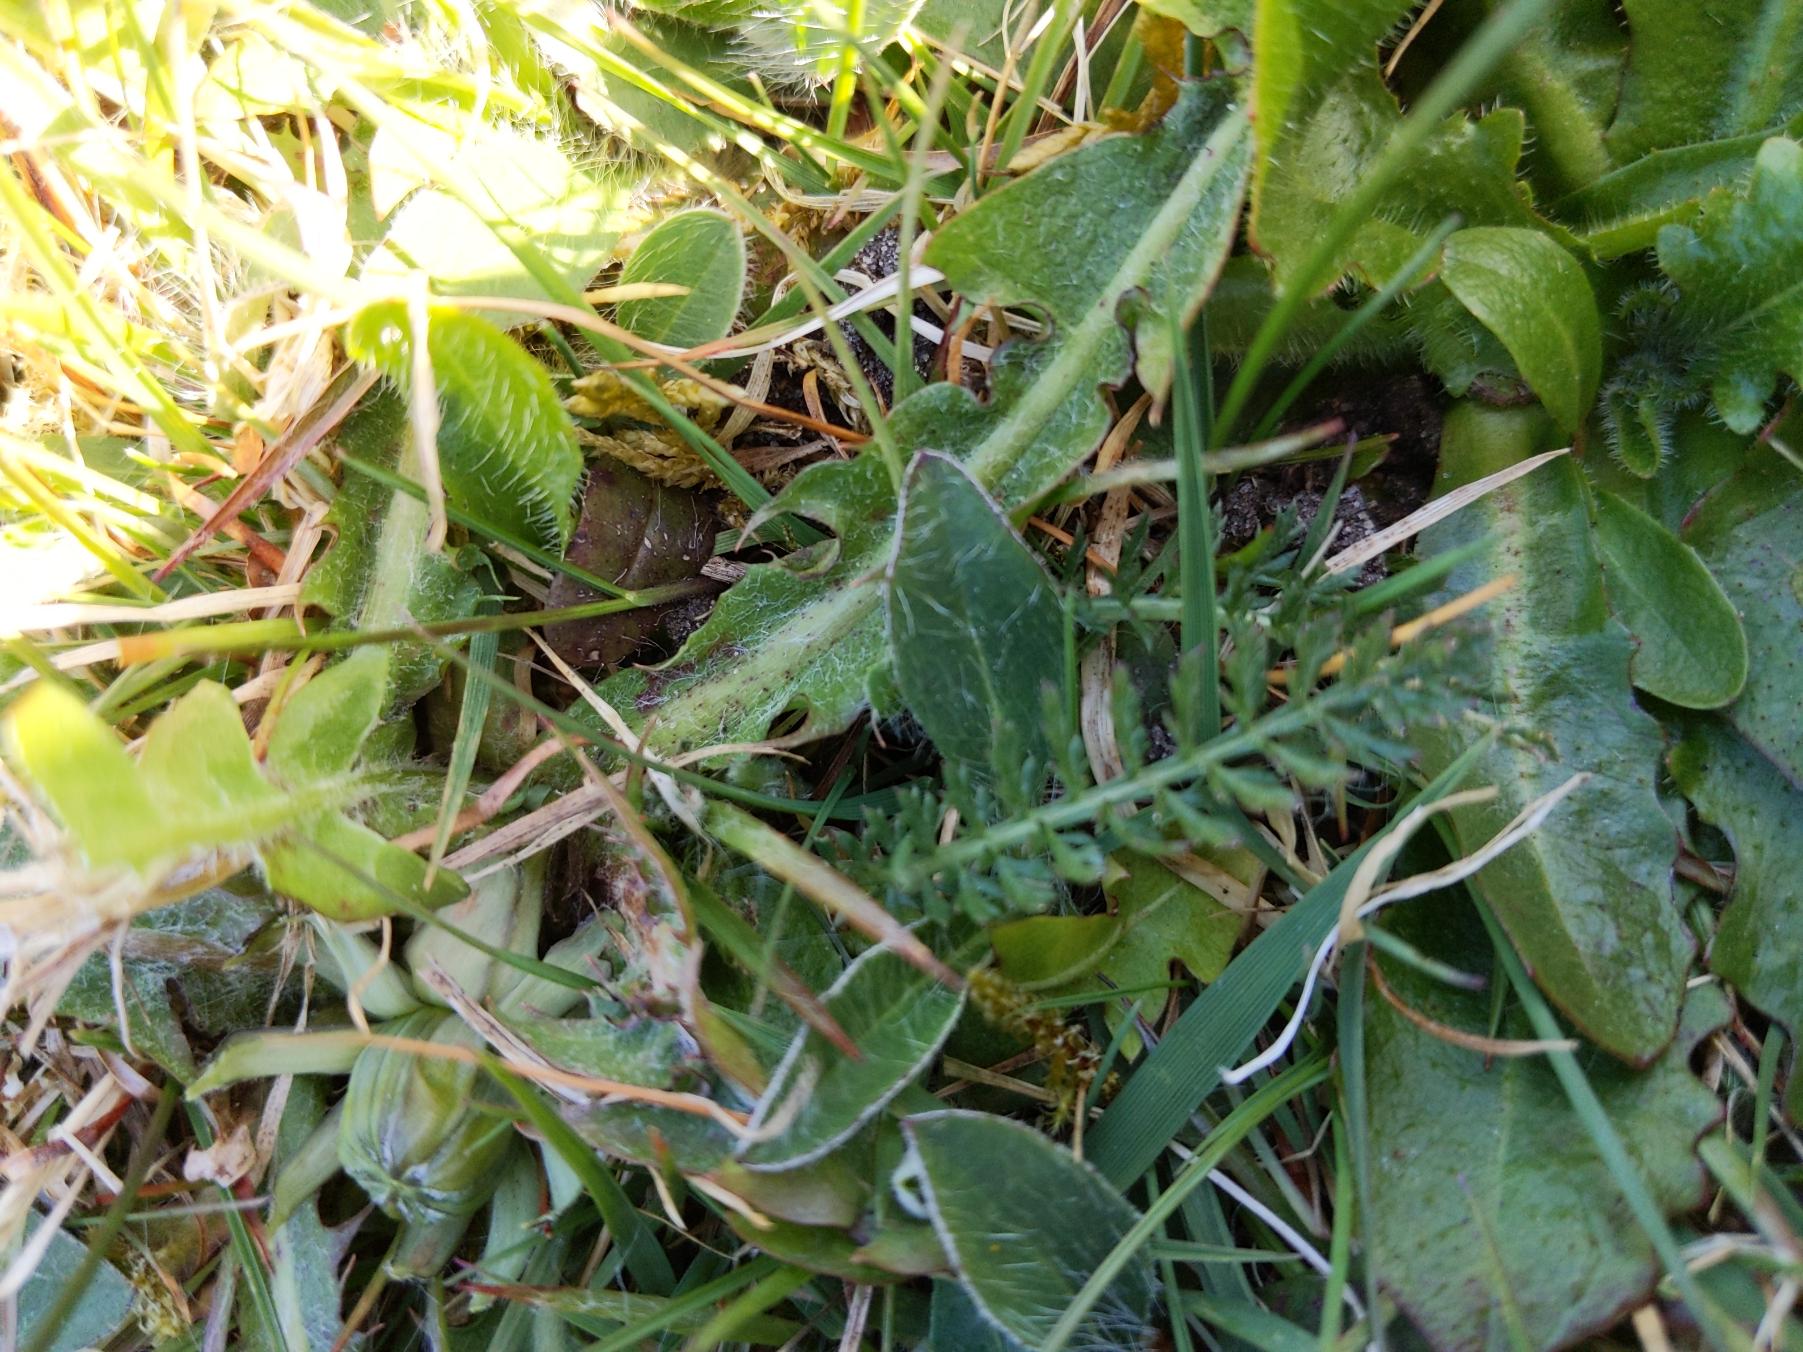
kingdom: Plantae
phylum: Tracheophyta
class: Magnoliopsida
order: Asterales
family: Asteraceae
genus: Pilosella
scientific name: Pilosella officinarum
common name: Håret høgeurt
